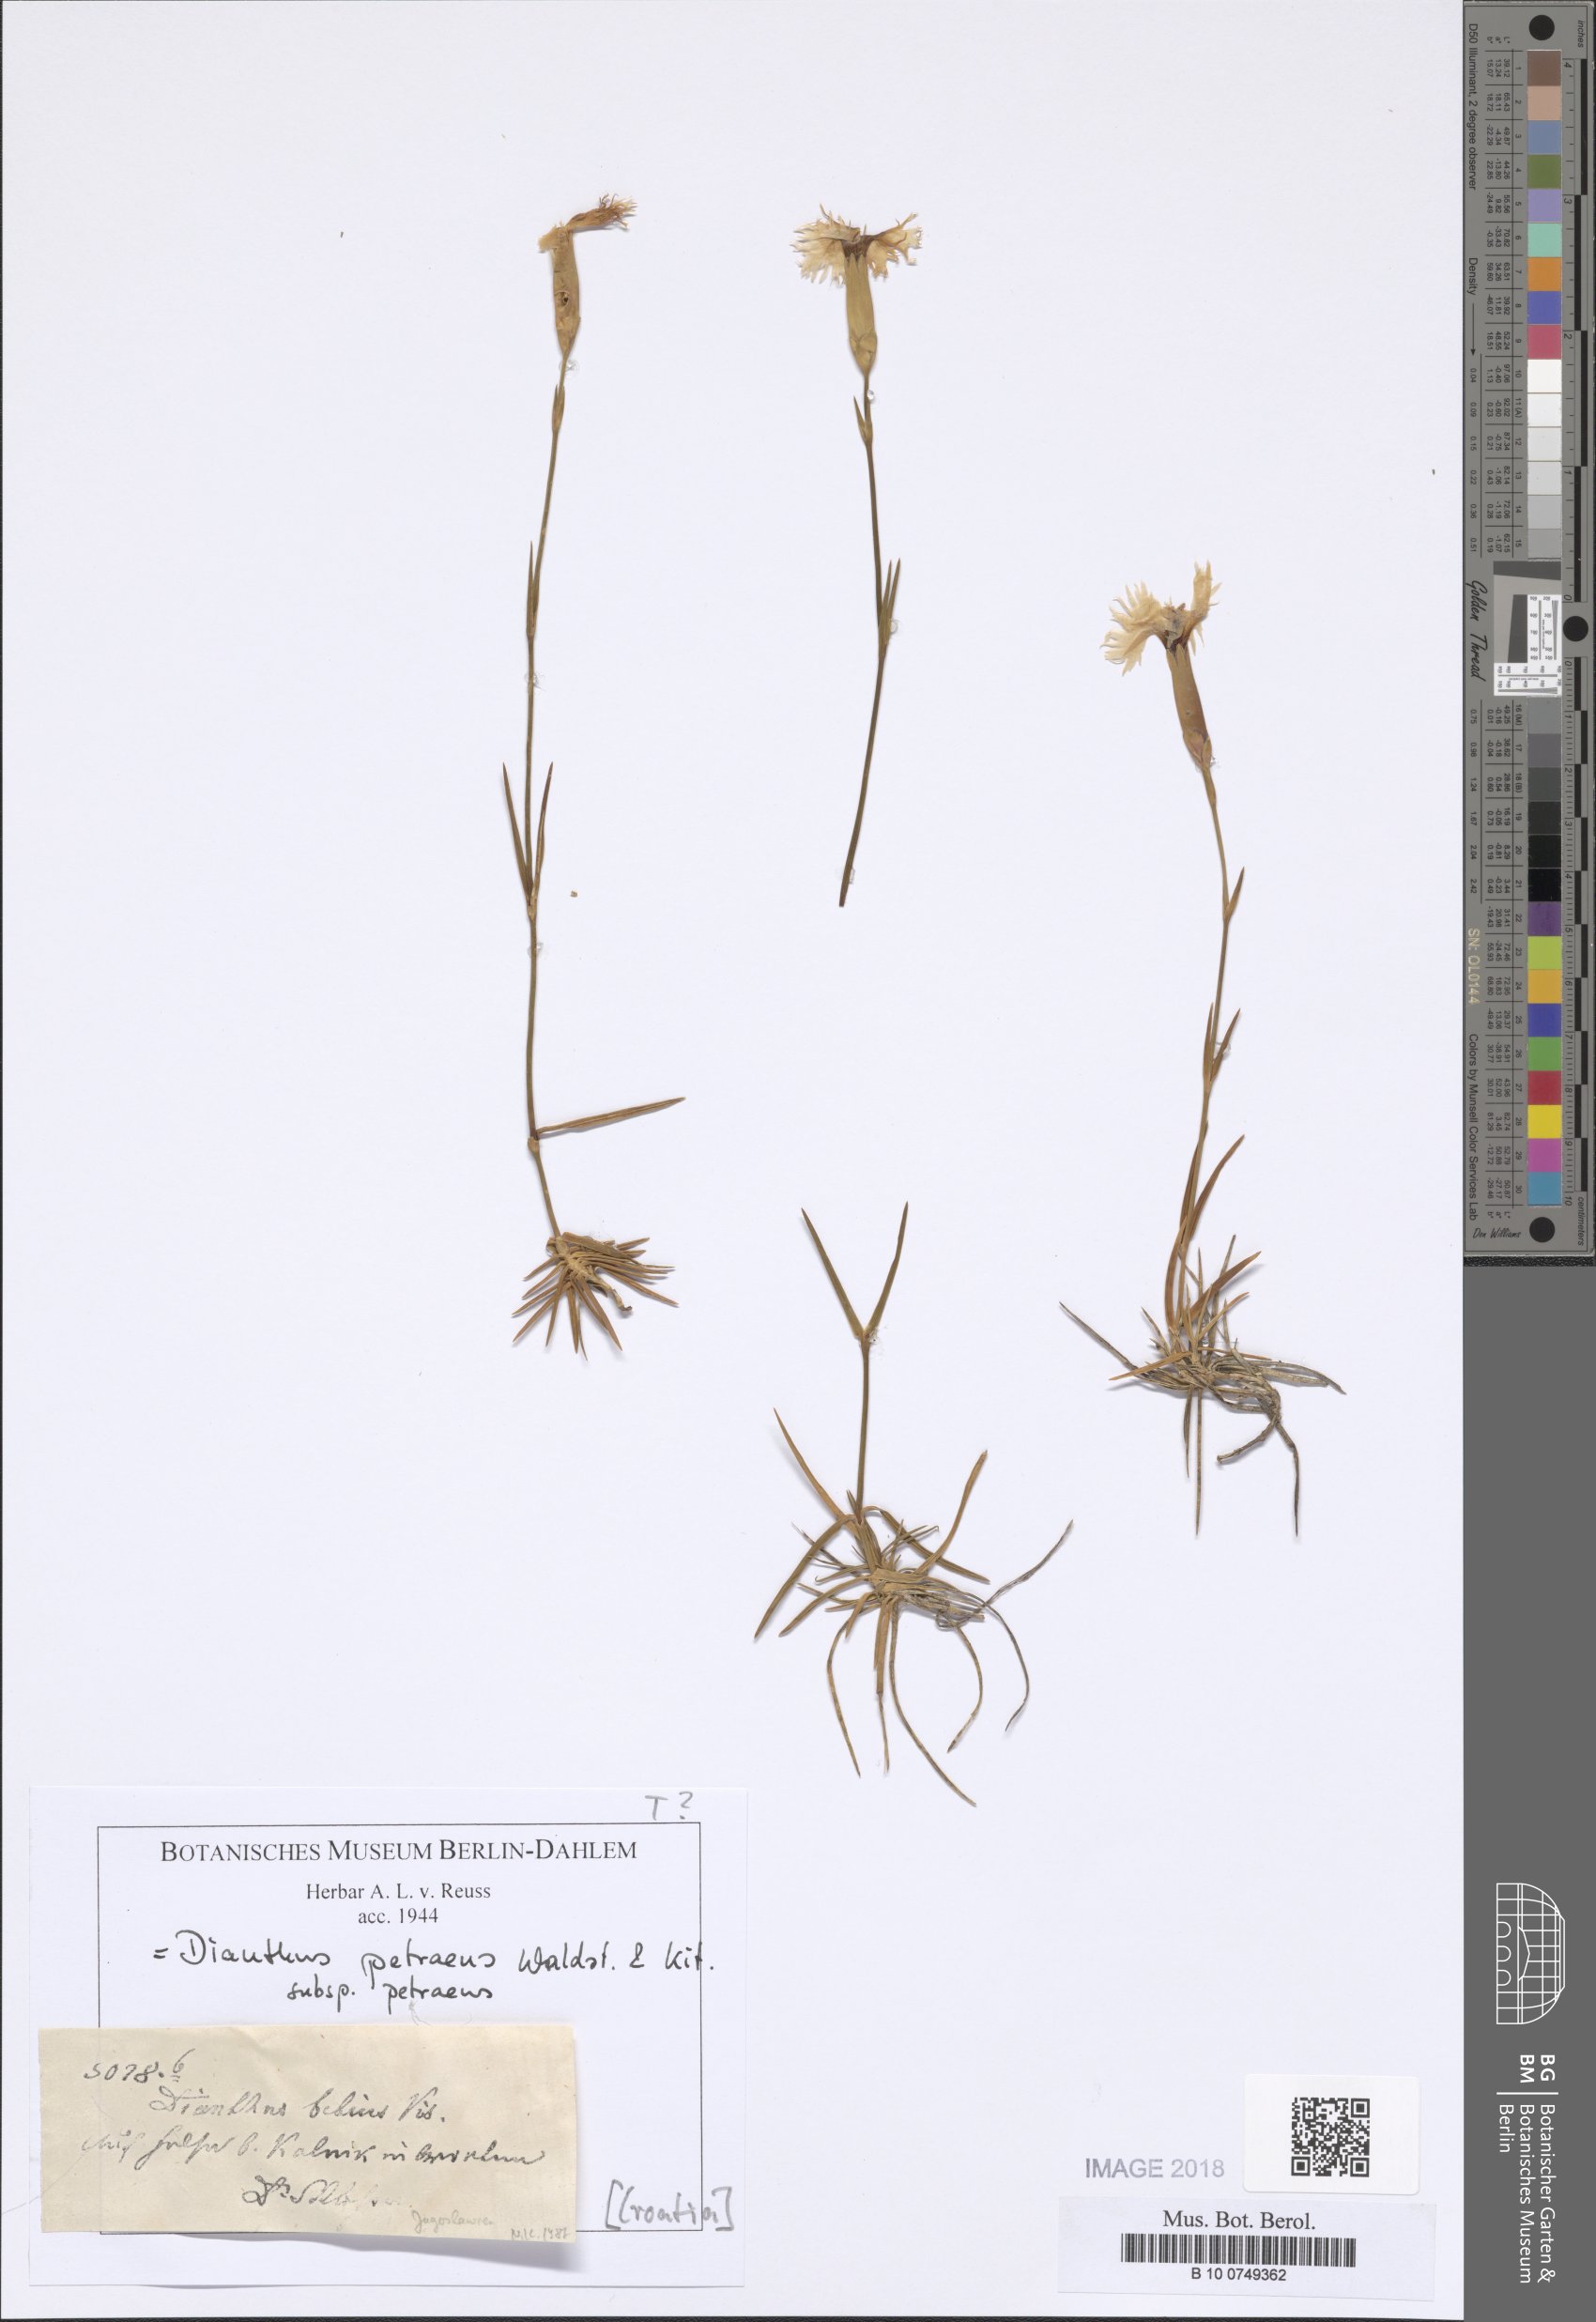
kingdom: Plantae
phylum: Tracheophyta
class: Magnoliopsida
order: Caryophyllales
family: Caryophyllaceae
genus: Dianthus
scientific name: Dianthus petraeus
